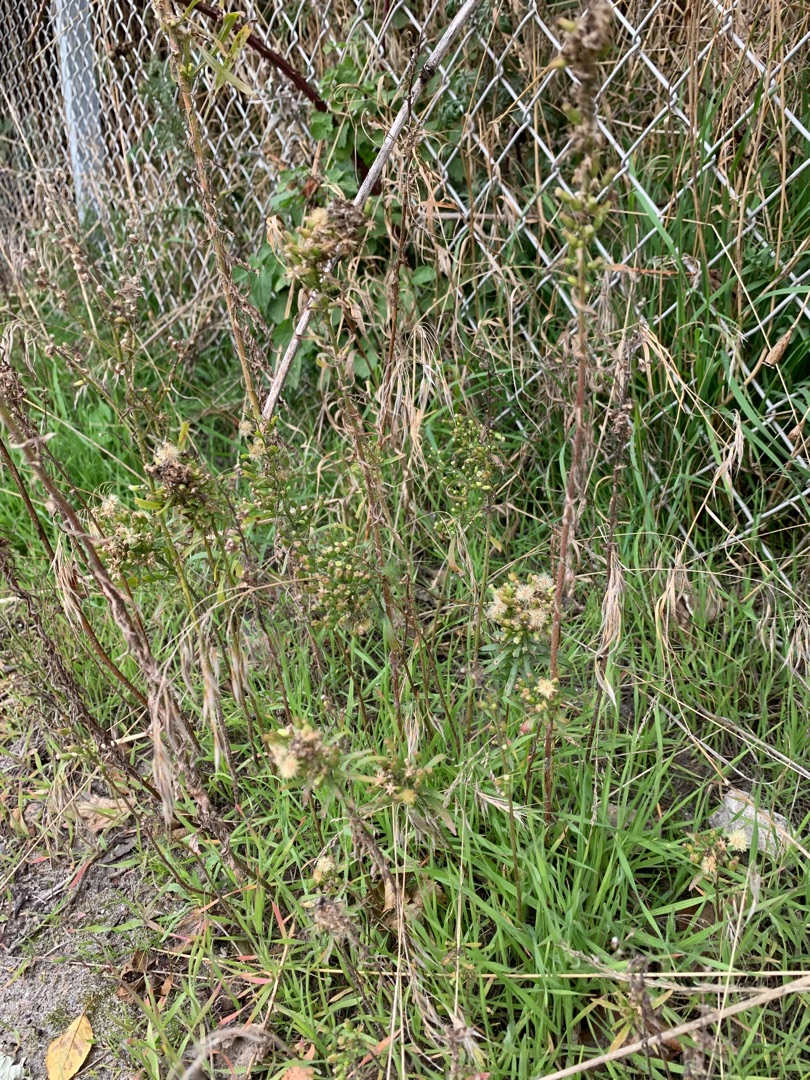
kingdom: Plantae
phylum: Tracheophyta
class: Magnoliopsida
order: Asterales
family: Asteraceae
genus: Erigeron
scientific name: Erigeron canadensis
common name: Kanadisk bakkestjerne
